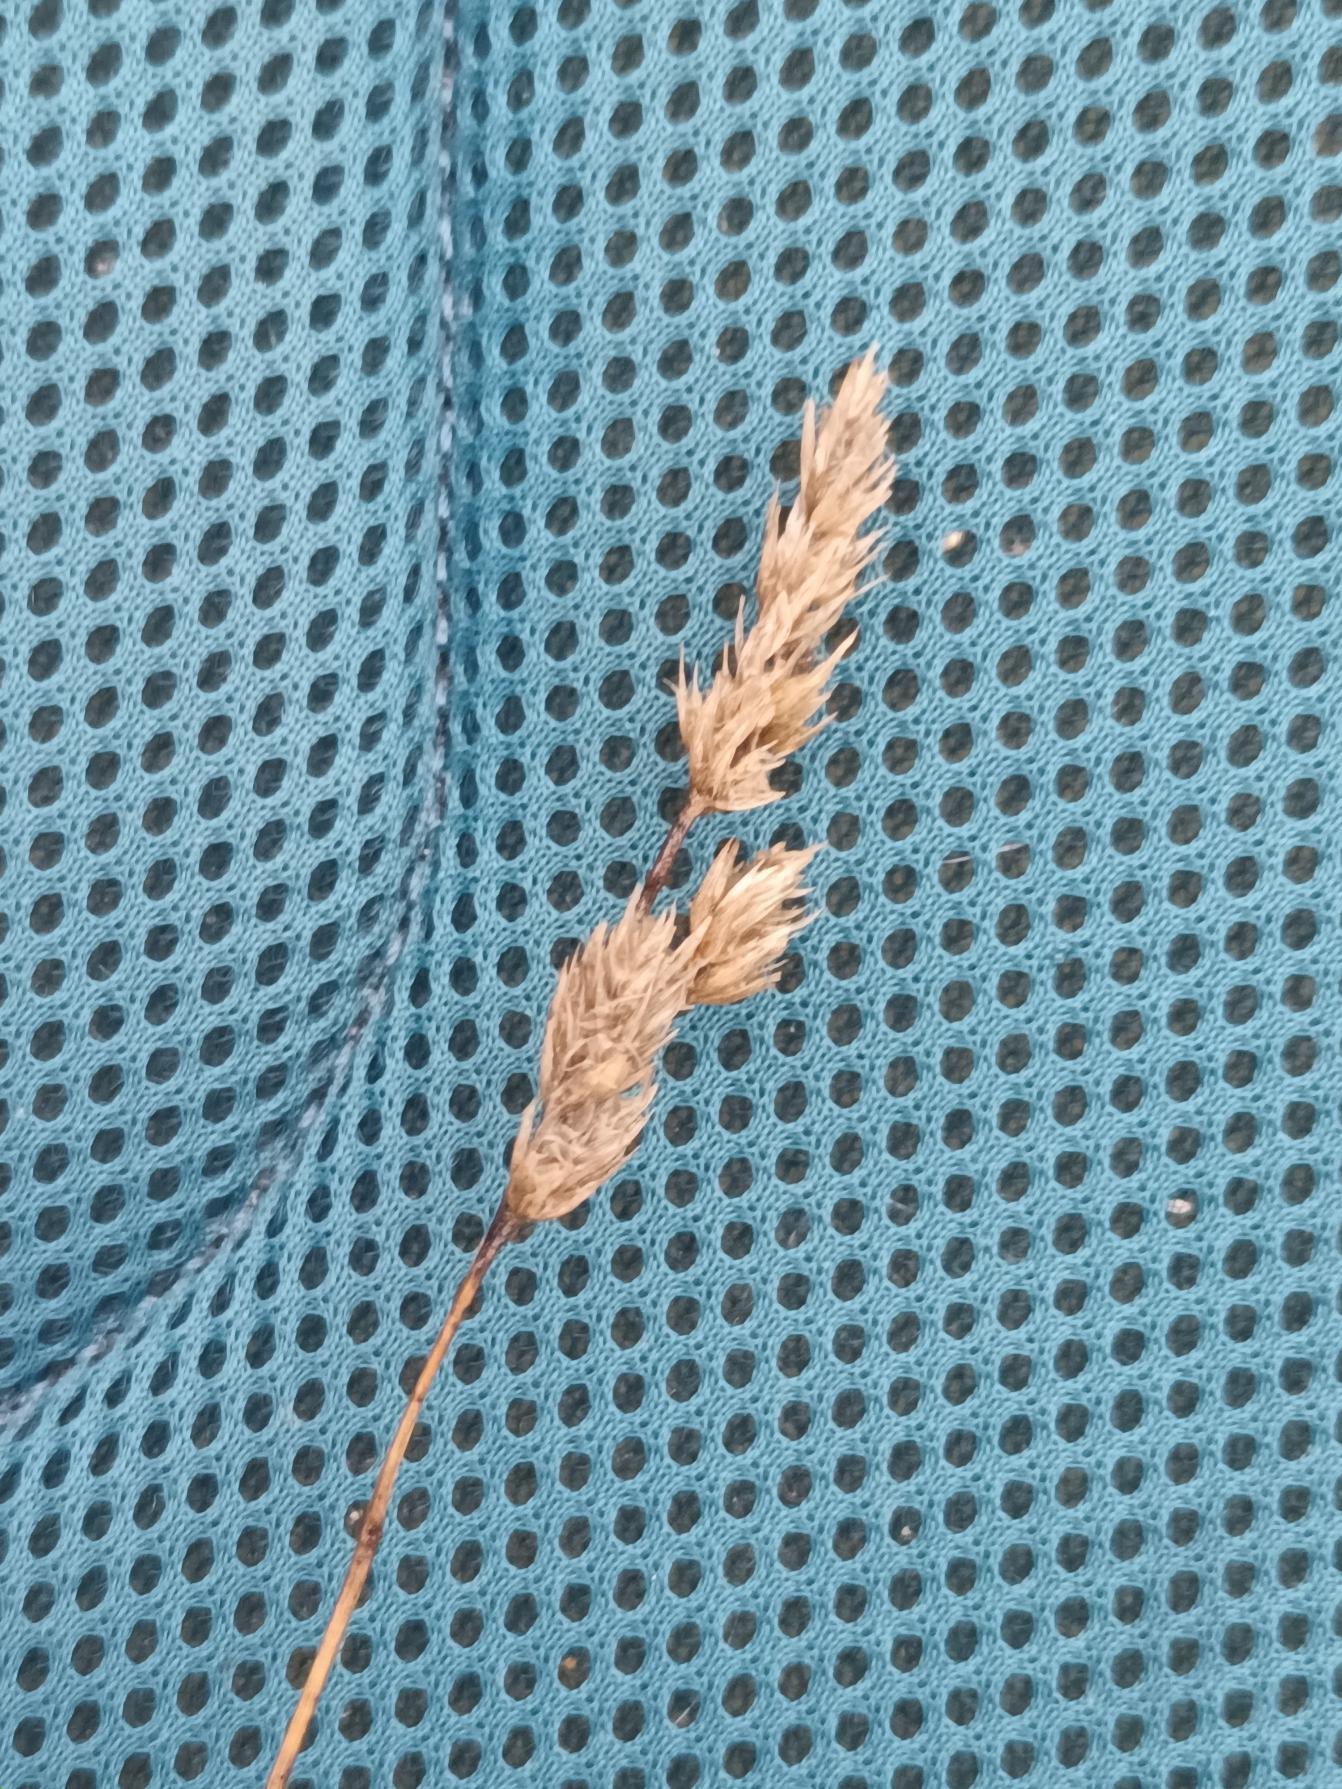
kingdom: Plantae
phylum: Tracheophyta
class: Liliopsida
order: Poales
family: Poaceae
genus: Dactylis
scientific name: Dactylis glomerata
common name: Almindelig hundegræs
